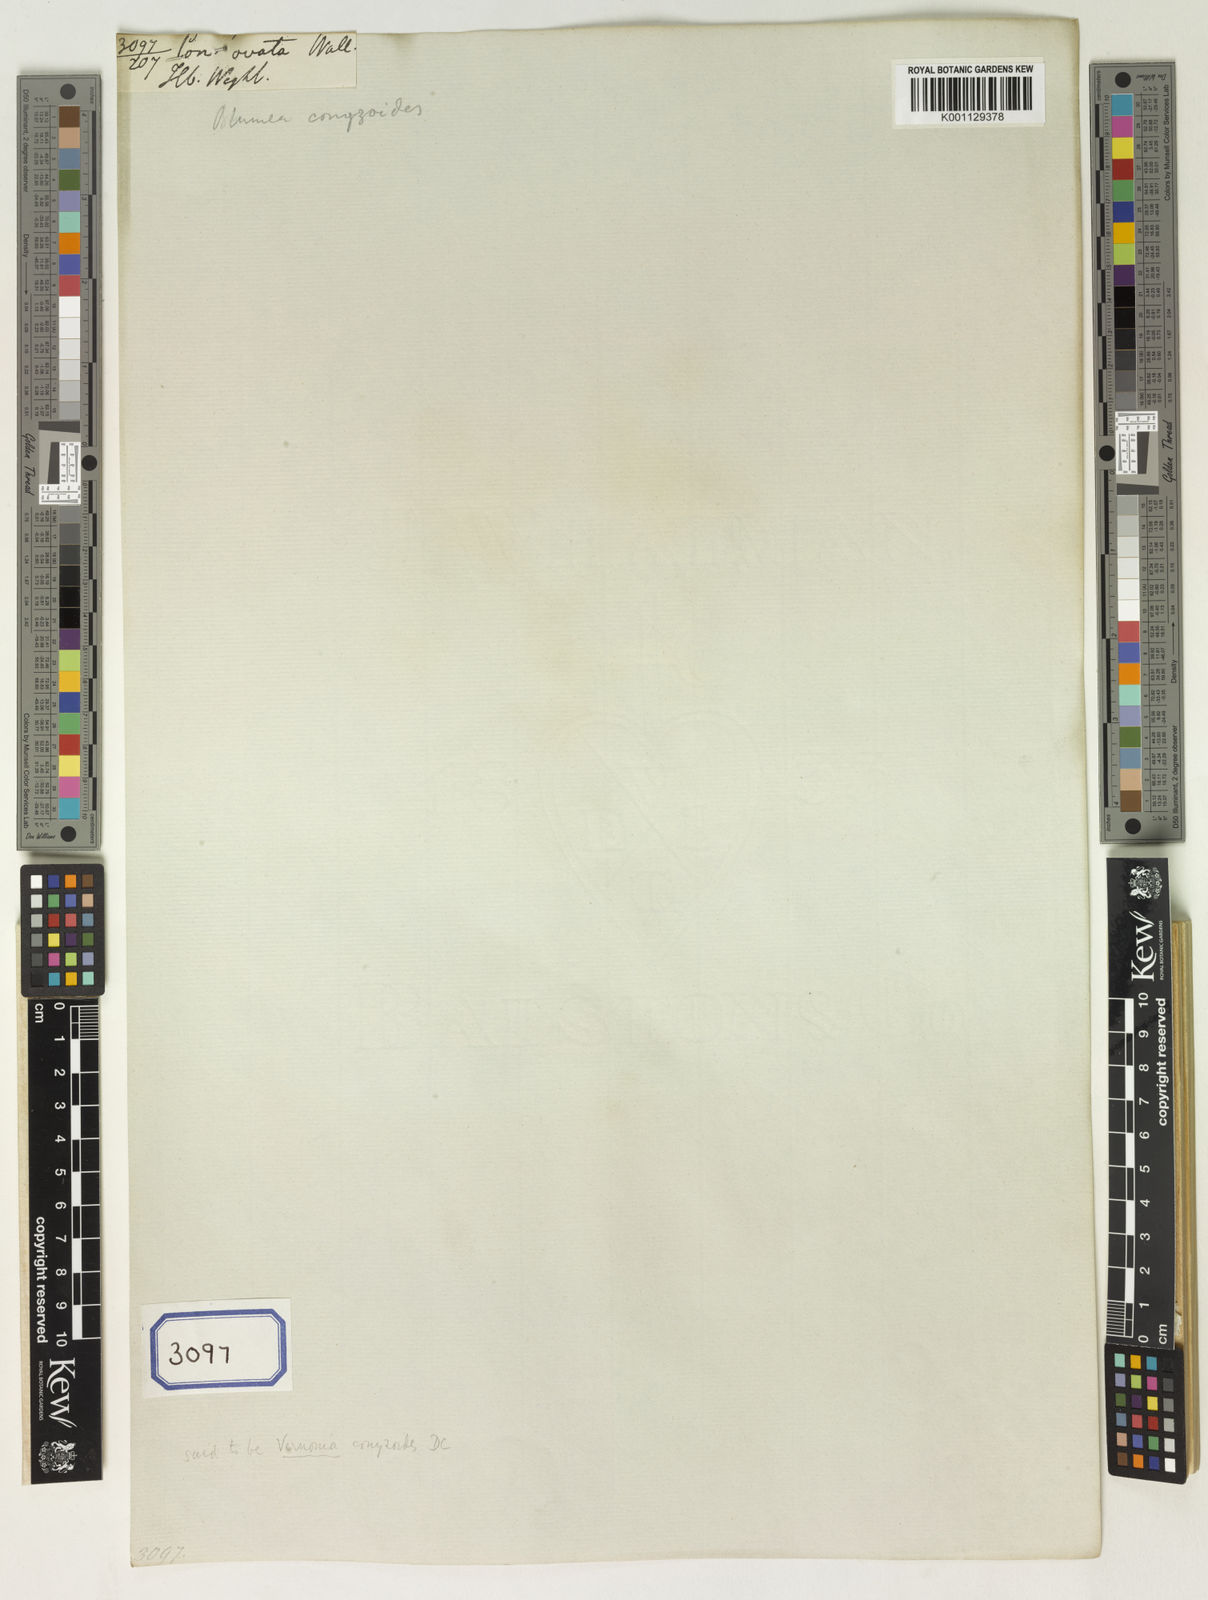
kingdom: Plantae
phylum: Tracheophyta
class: Magnoliopsida
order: Asterales
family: Asteraceae
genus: Erigeron
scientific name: Erigeron Conyza ovata
